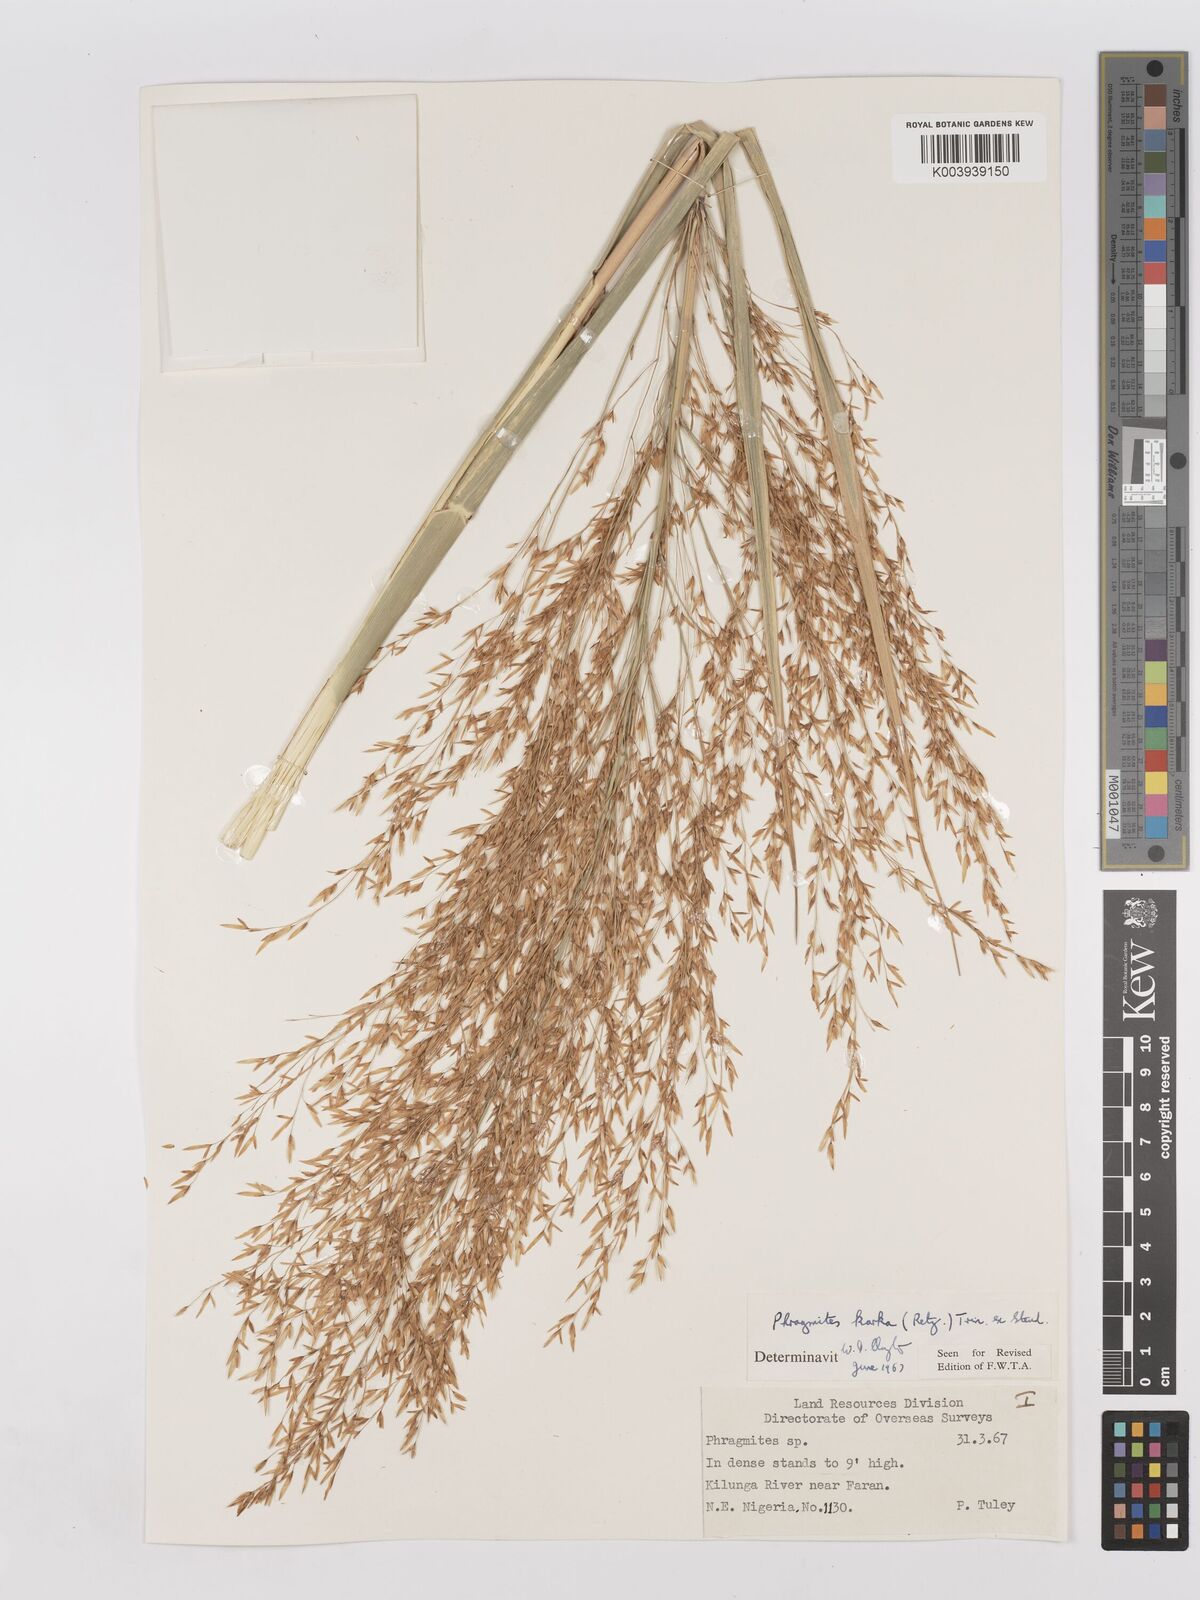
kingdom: Plantae
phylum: Tracheophyta
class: Liliopsida
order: Poales
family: Poaceae
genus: Phragmites
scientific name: Phragmites karka
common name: Tropical reed
